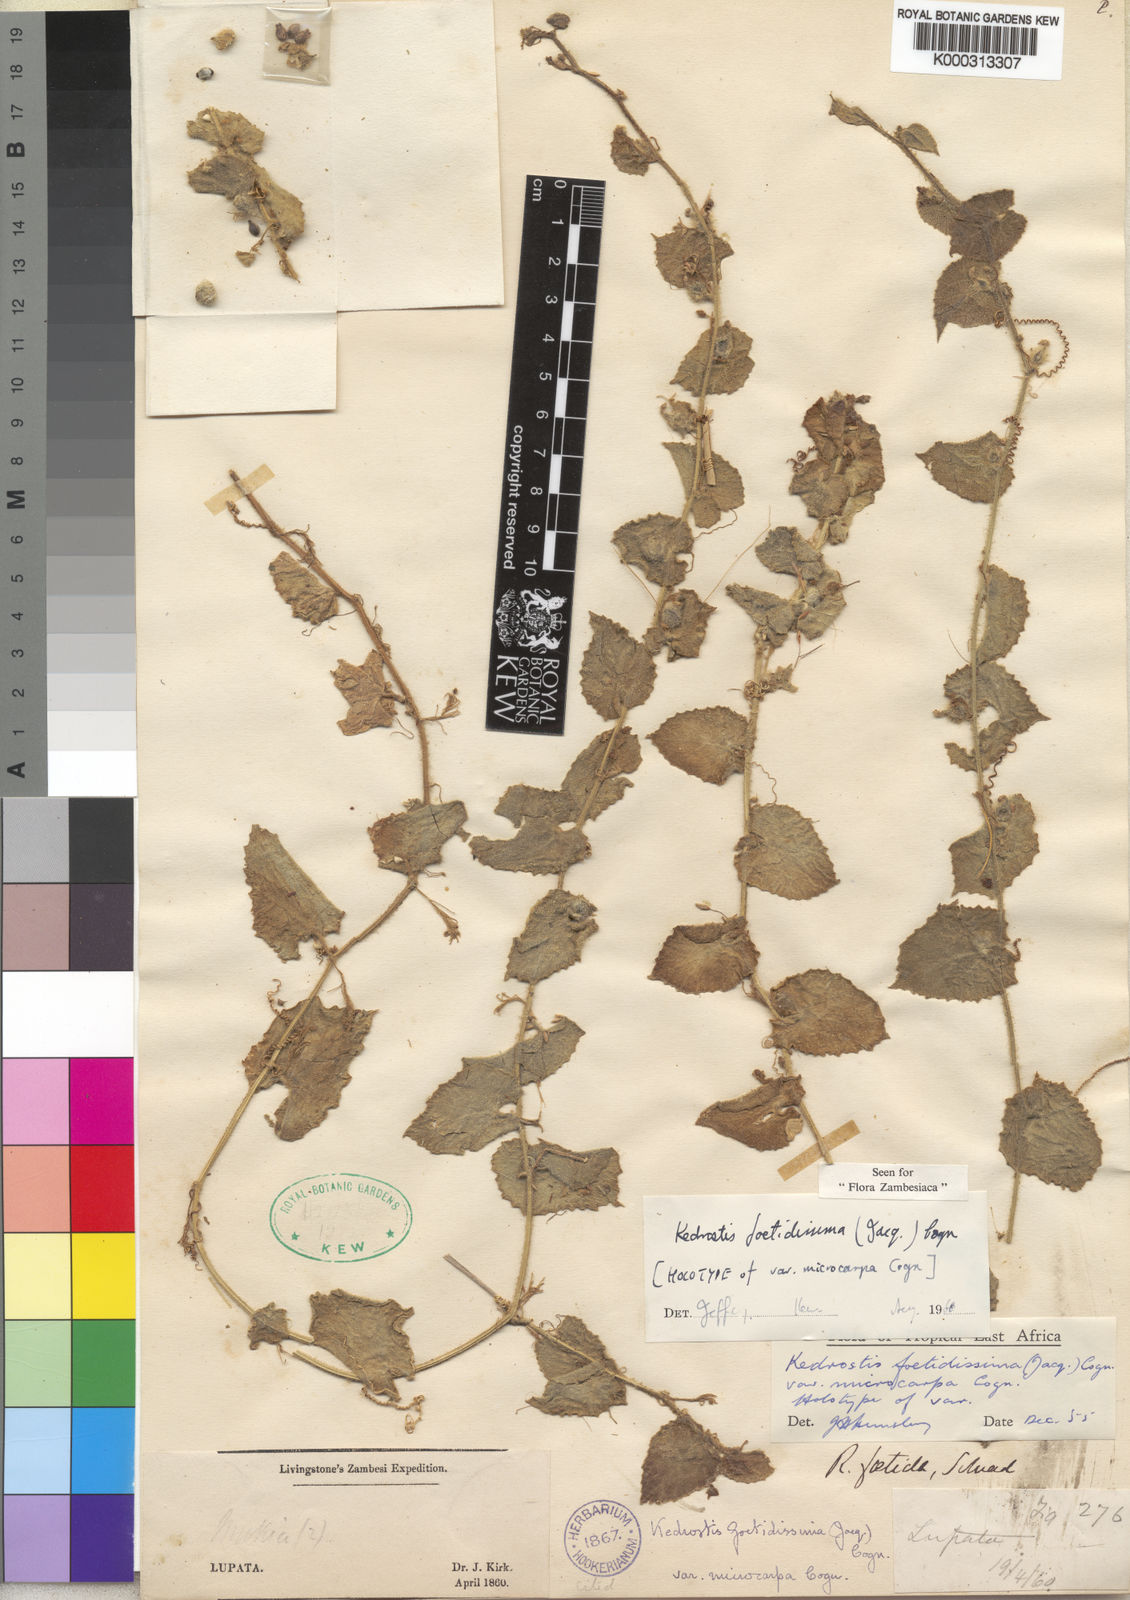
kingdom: Plantae
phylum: Tracheophyta
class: Magnoliopsida
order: Cucurbitales
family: Cucurbitaceae
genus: Kedrostis
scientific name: Kedrostis foetidissima
